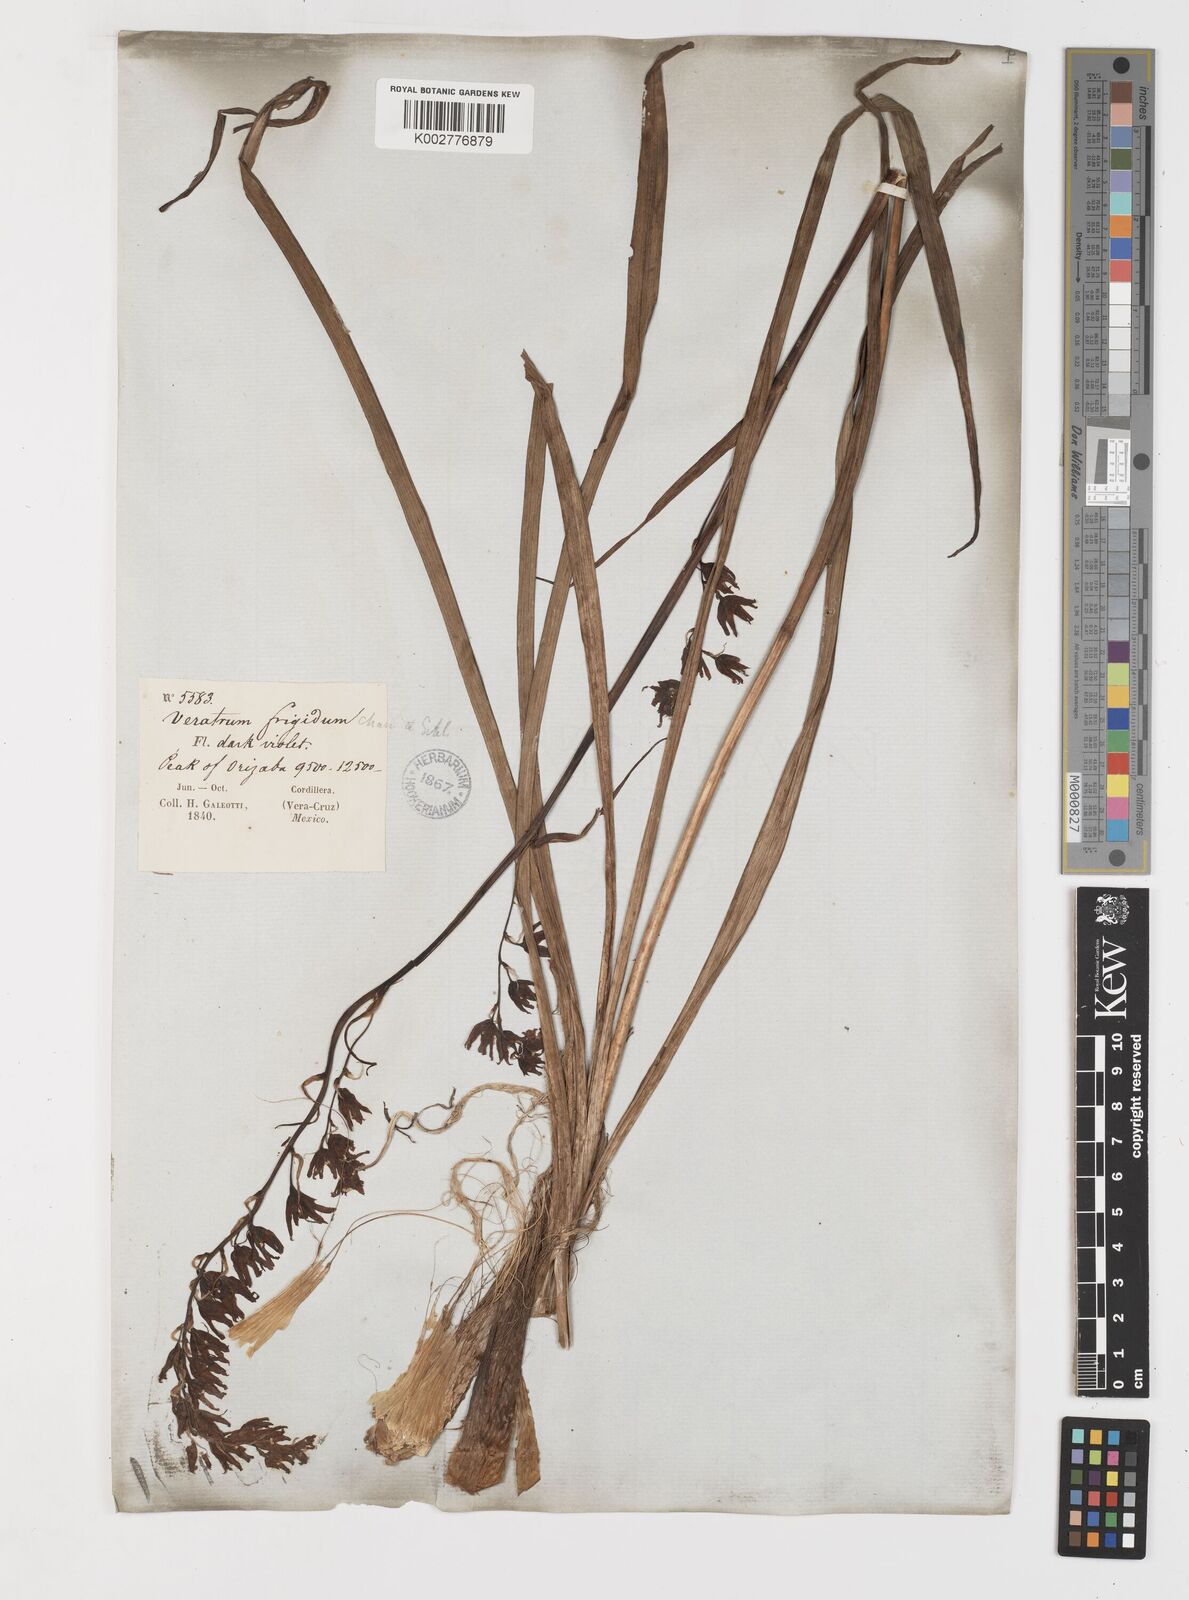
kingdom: Plantae
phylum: Tracheophyta
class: Liliopsida
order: Liliales
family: Melanthiaceae
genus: Anticlea
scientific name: Anticlea frigida
